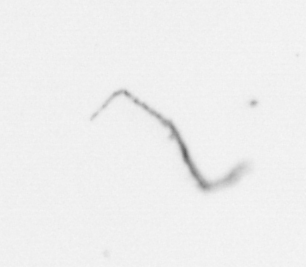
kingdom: Chromista
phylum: Ochrophyta
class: Bacillariophyceae
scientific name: Bacillariophyceae
